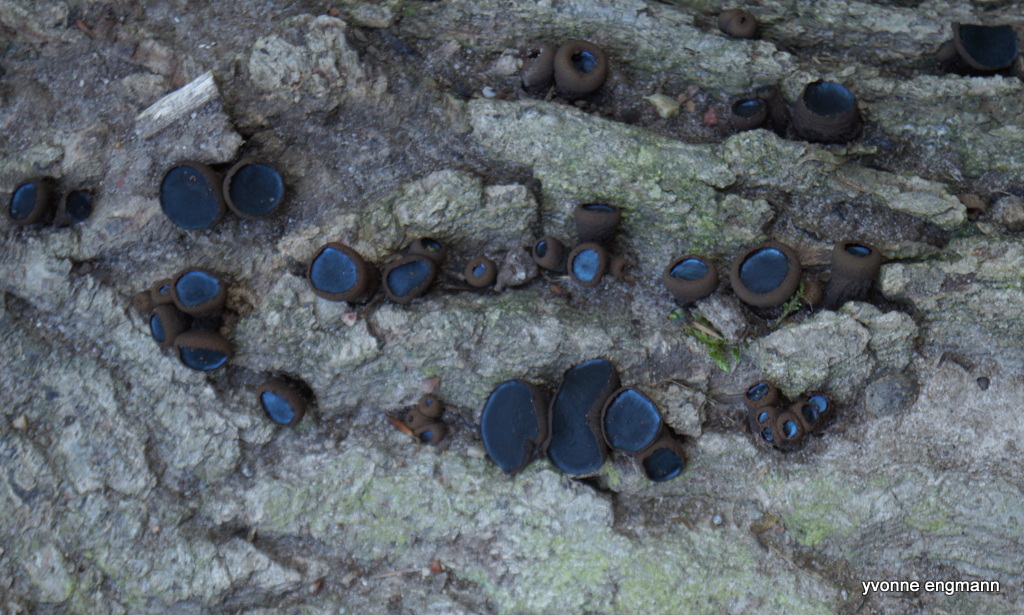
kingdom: Fungi
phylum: Ascomycota
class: Leotiomycetes
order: Phacidiales
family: Phacidiaceae
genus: Bulgaria
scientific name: Bulgaria inquinans
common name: afsmittende topsvamp
